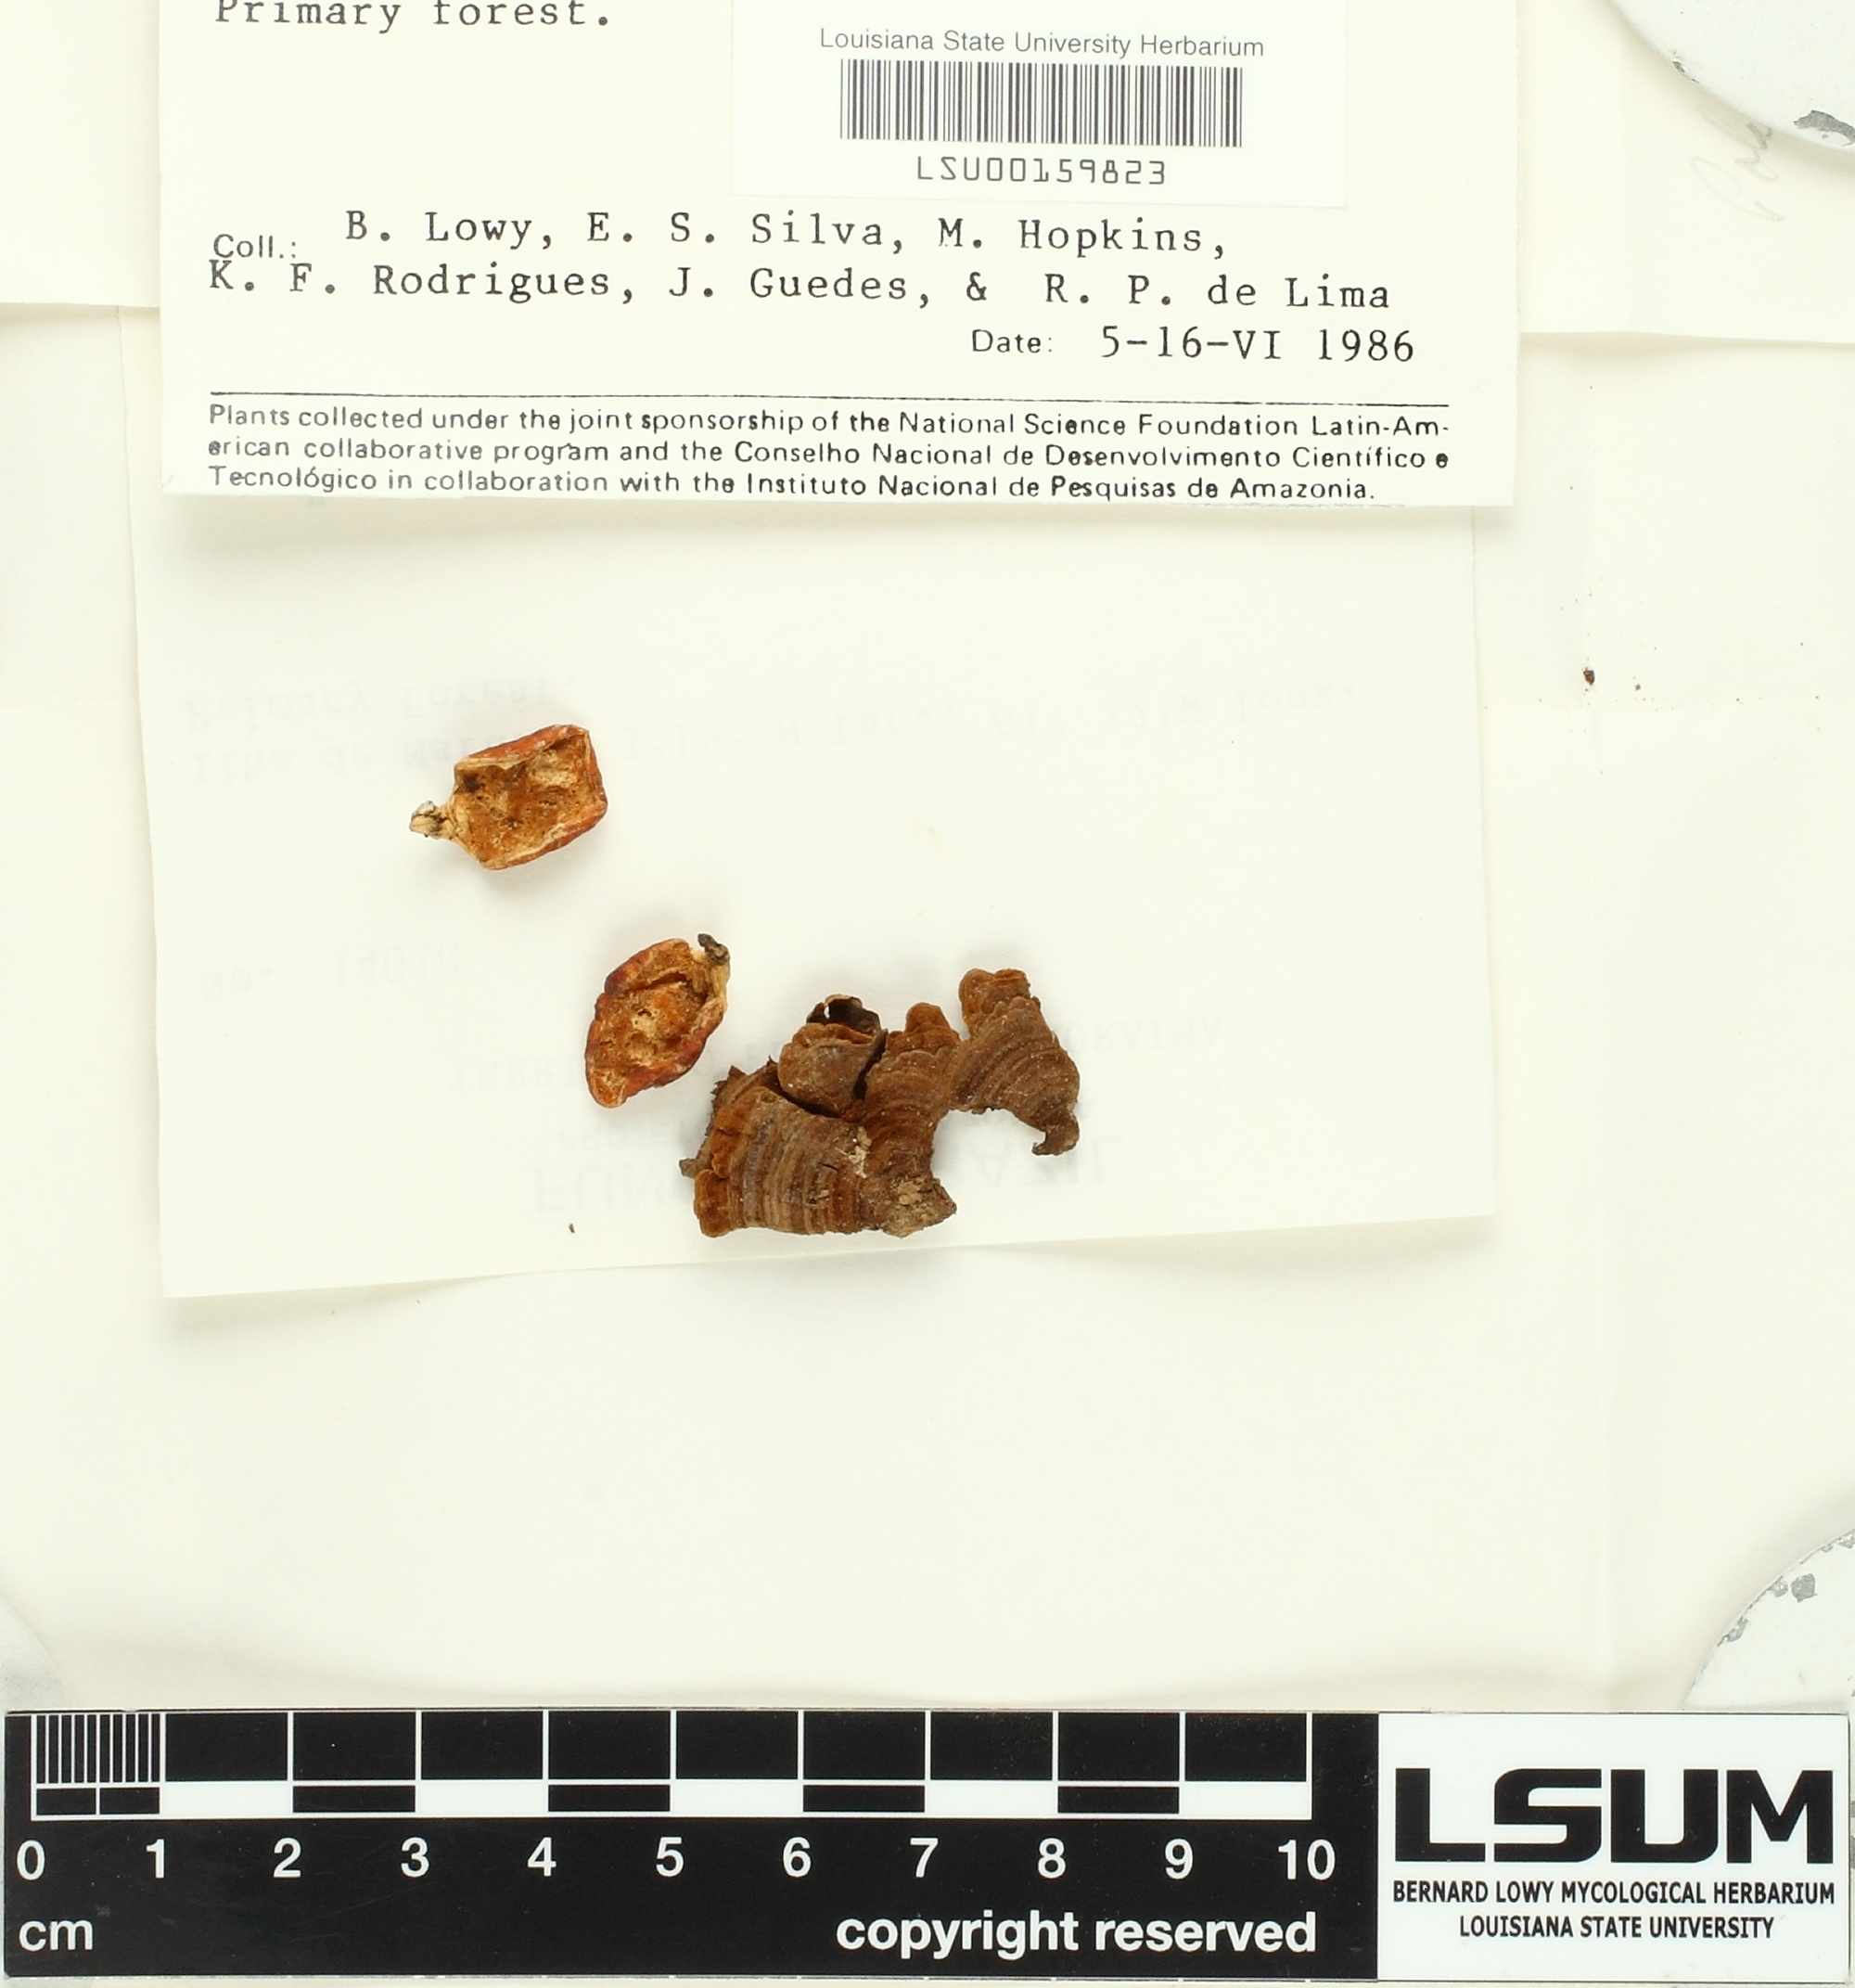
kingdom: Fungi
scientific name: Fungi
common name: Fungi
